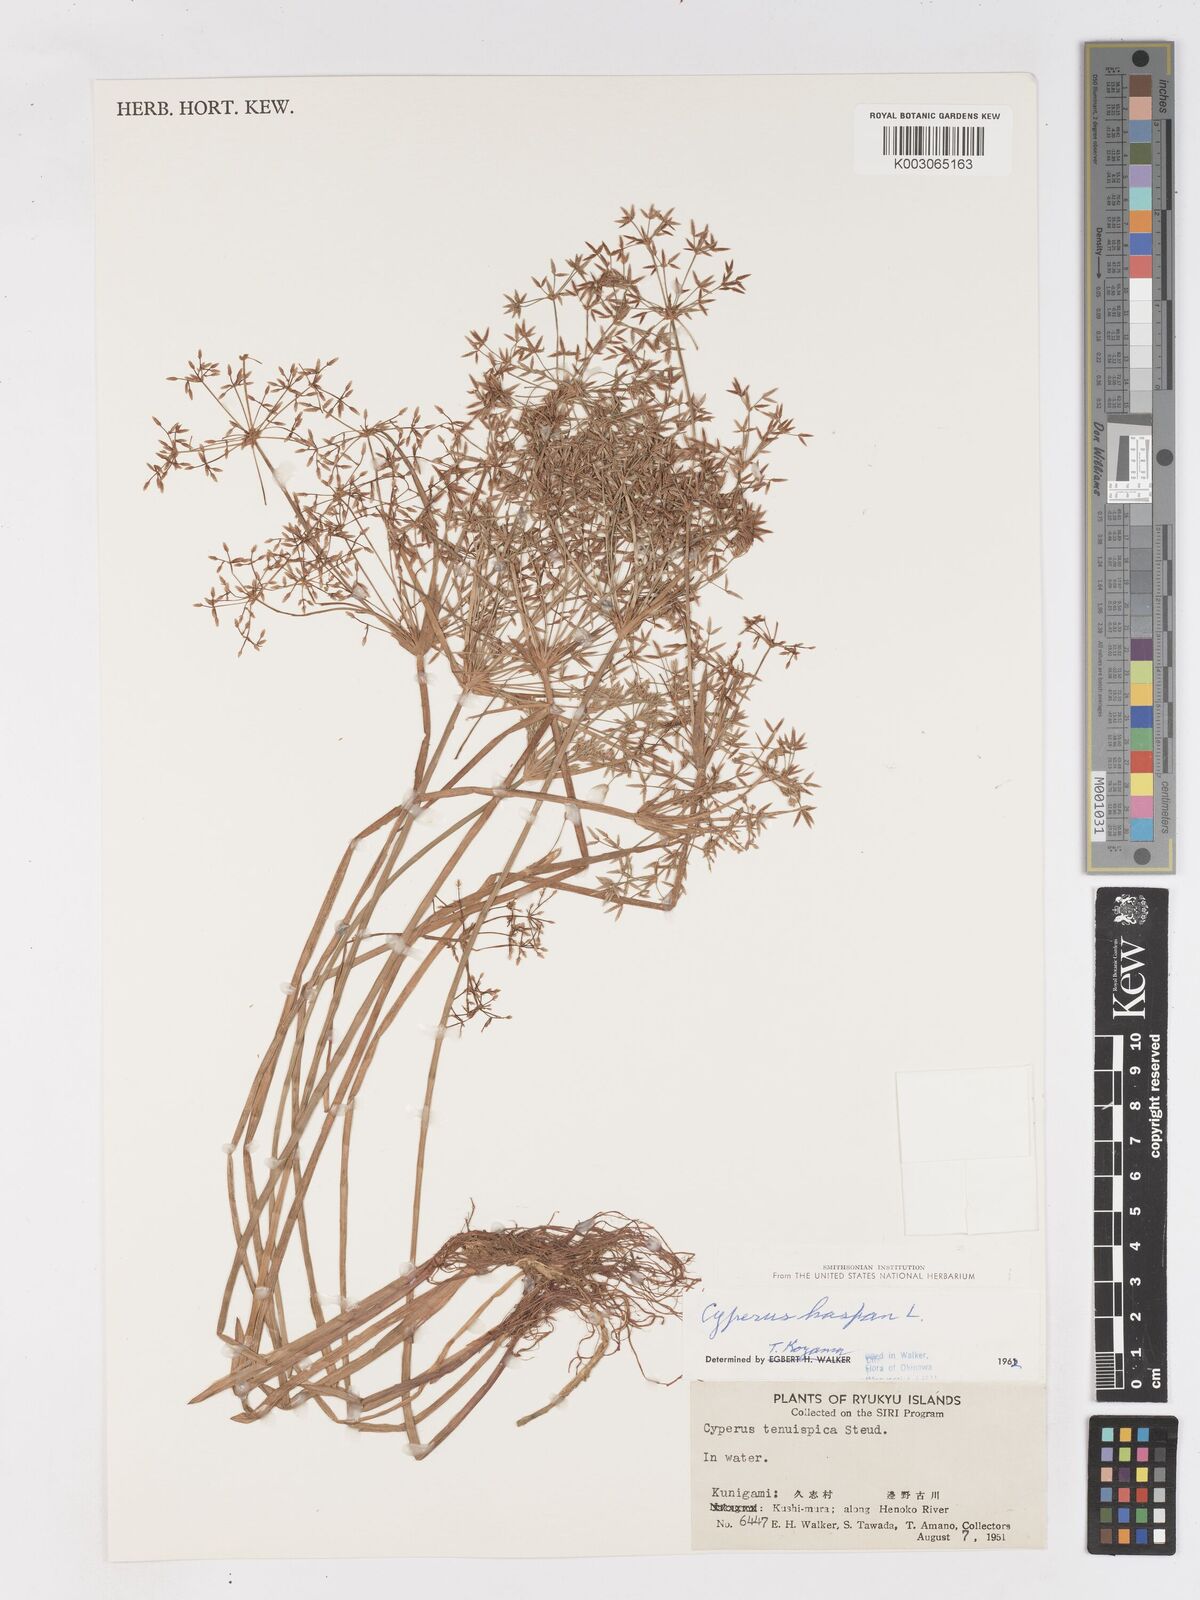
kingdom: Plantae
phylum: Tracheophyta
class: Liliopsida
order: Poales
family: Cyperaceae
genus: Cyperus
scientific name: Cyperus haspan
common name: Haspan flatsedge
